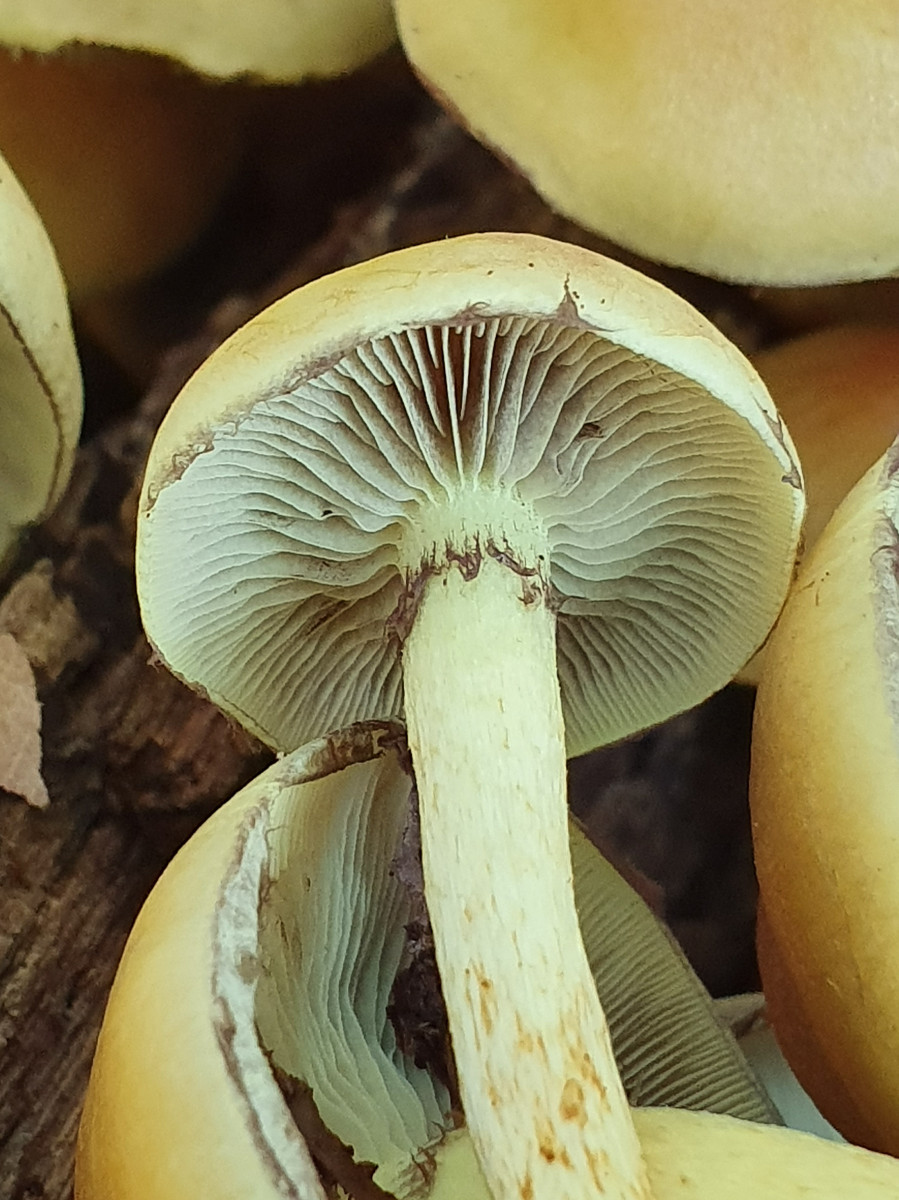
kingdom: Fungi
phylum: Basidiomycota
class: Agaricomycetes
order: Agaricales
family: Strophariaceae
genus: Hypholoma
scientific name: Hypholoma fasciculare
